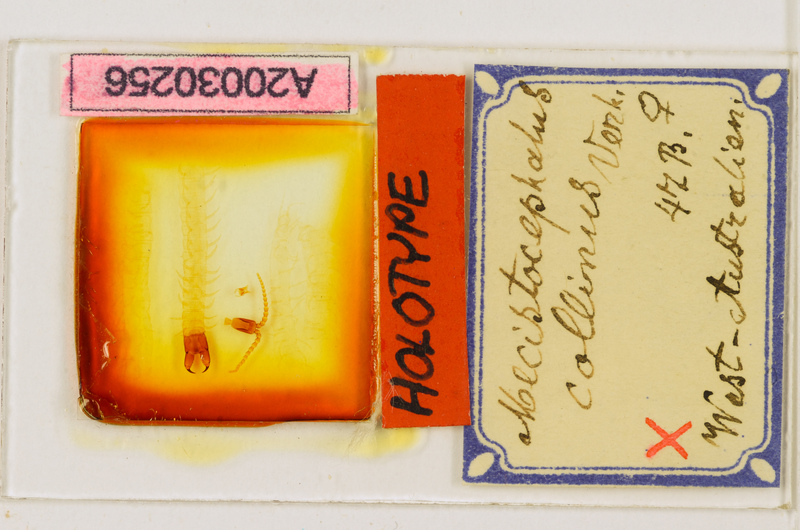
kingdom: Animalia
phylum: Arthropoda
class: Chilopoda
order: Geophilomorpha
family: Mecistocephalidae
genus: Mecistocephalus
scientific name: Mecistocephalus collinus
